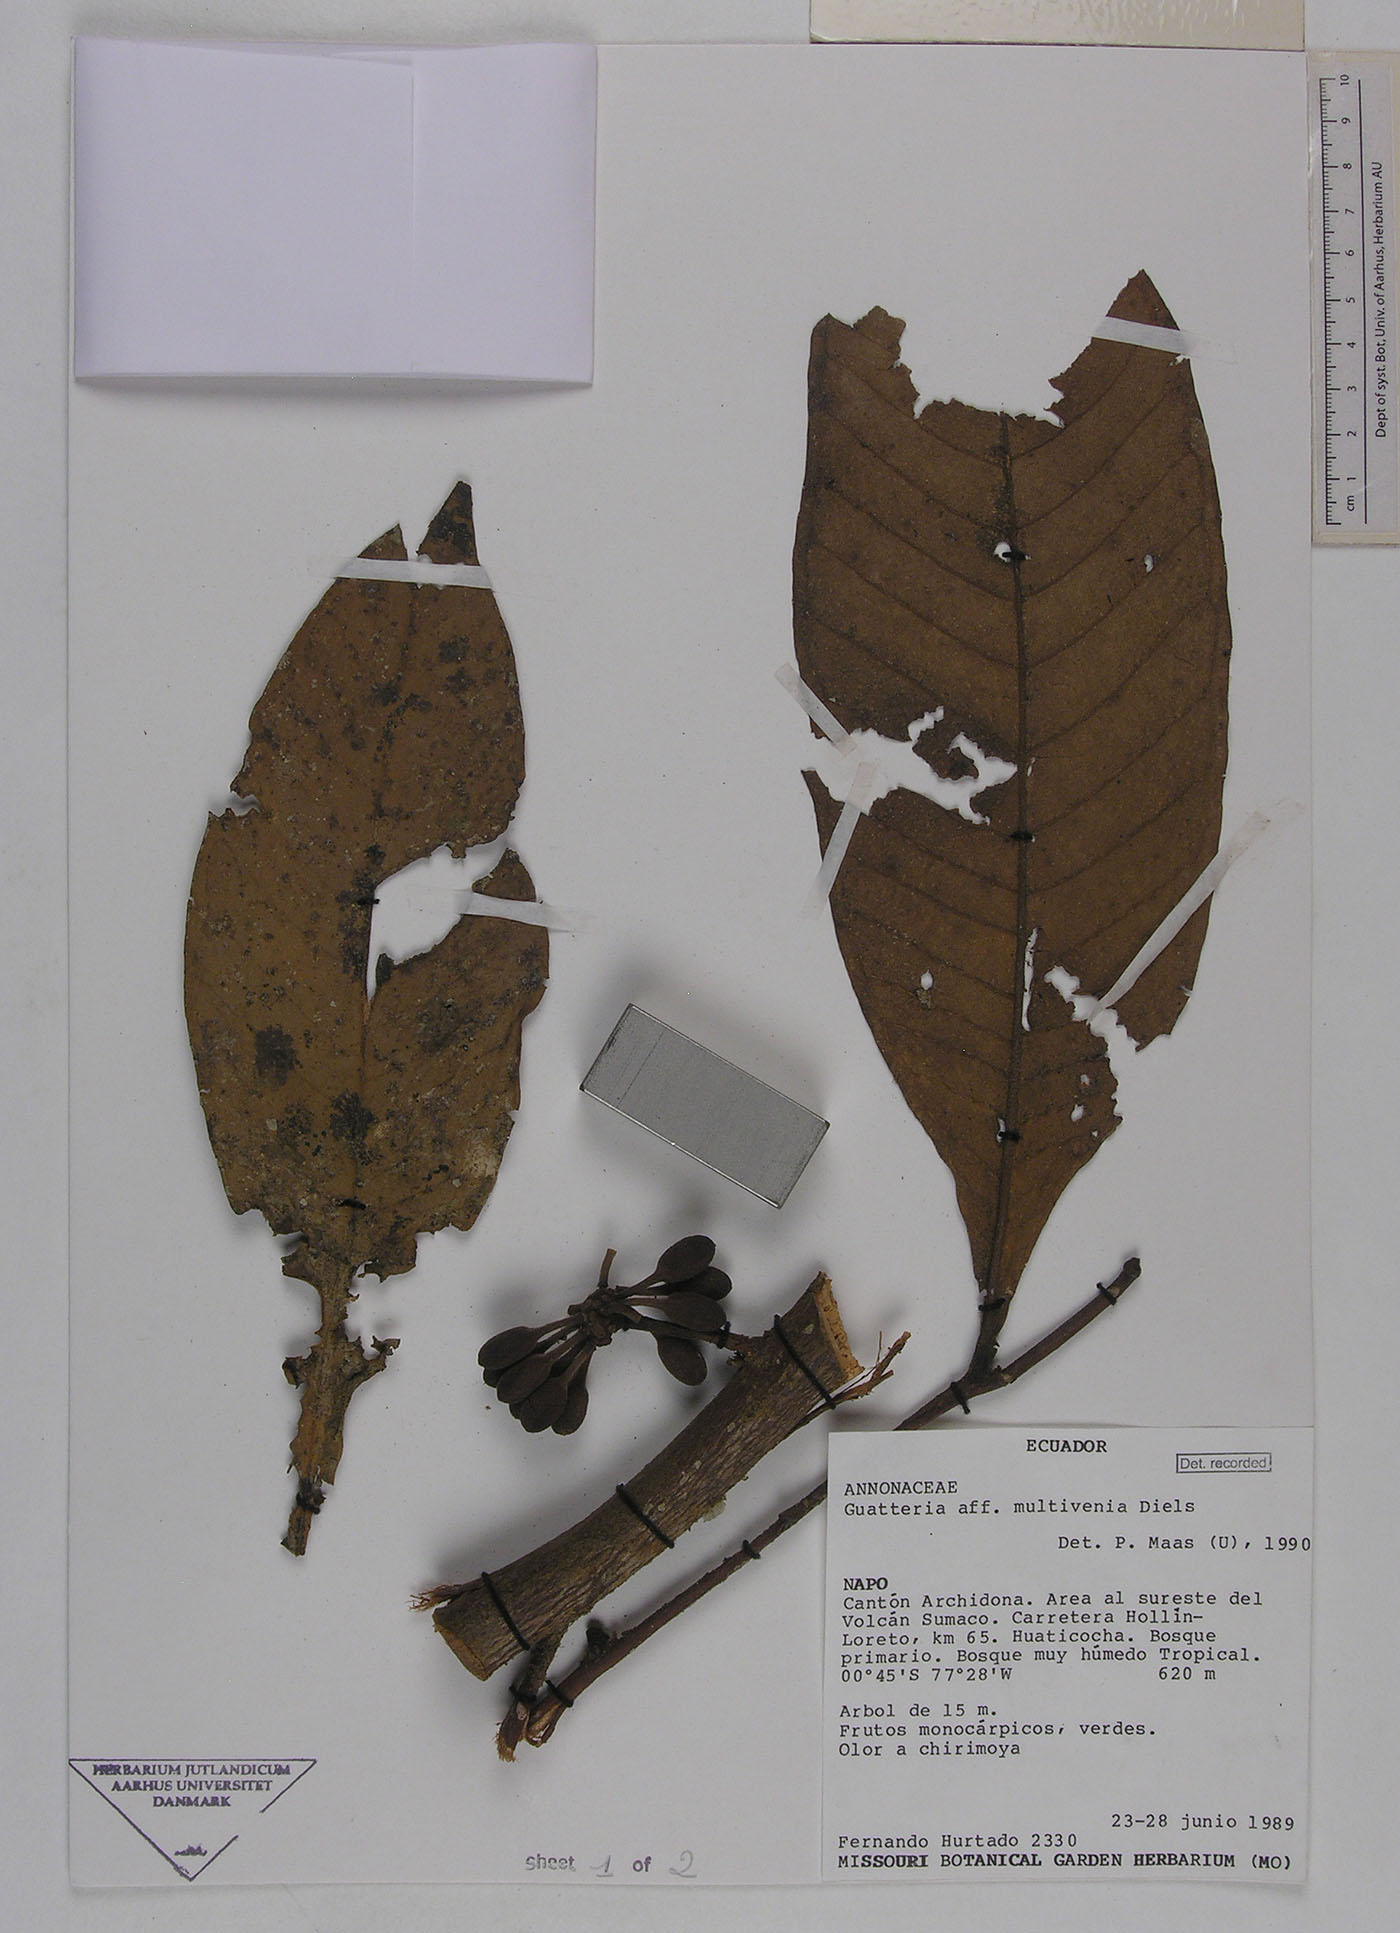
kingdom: Plantae
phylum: Tracheophyta
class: Magnoliopsida
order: Magnoliales
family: Annonaceae
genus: Guatteria
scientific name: Guatteria decurrens
